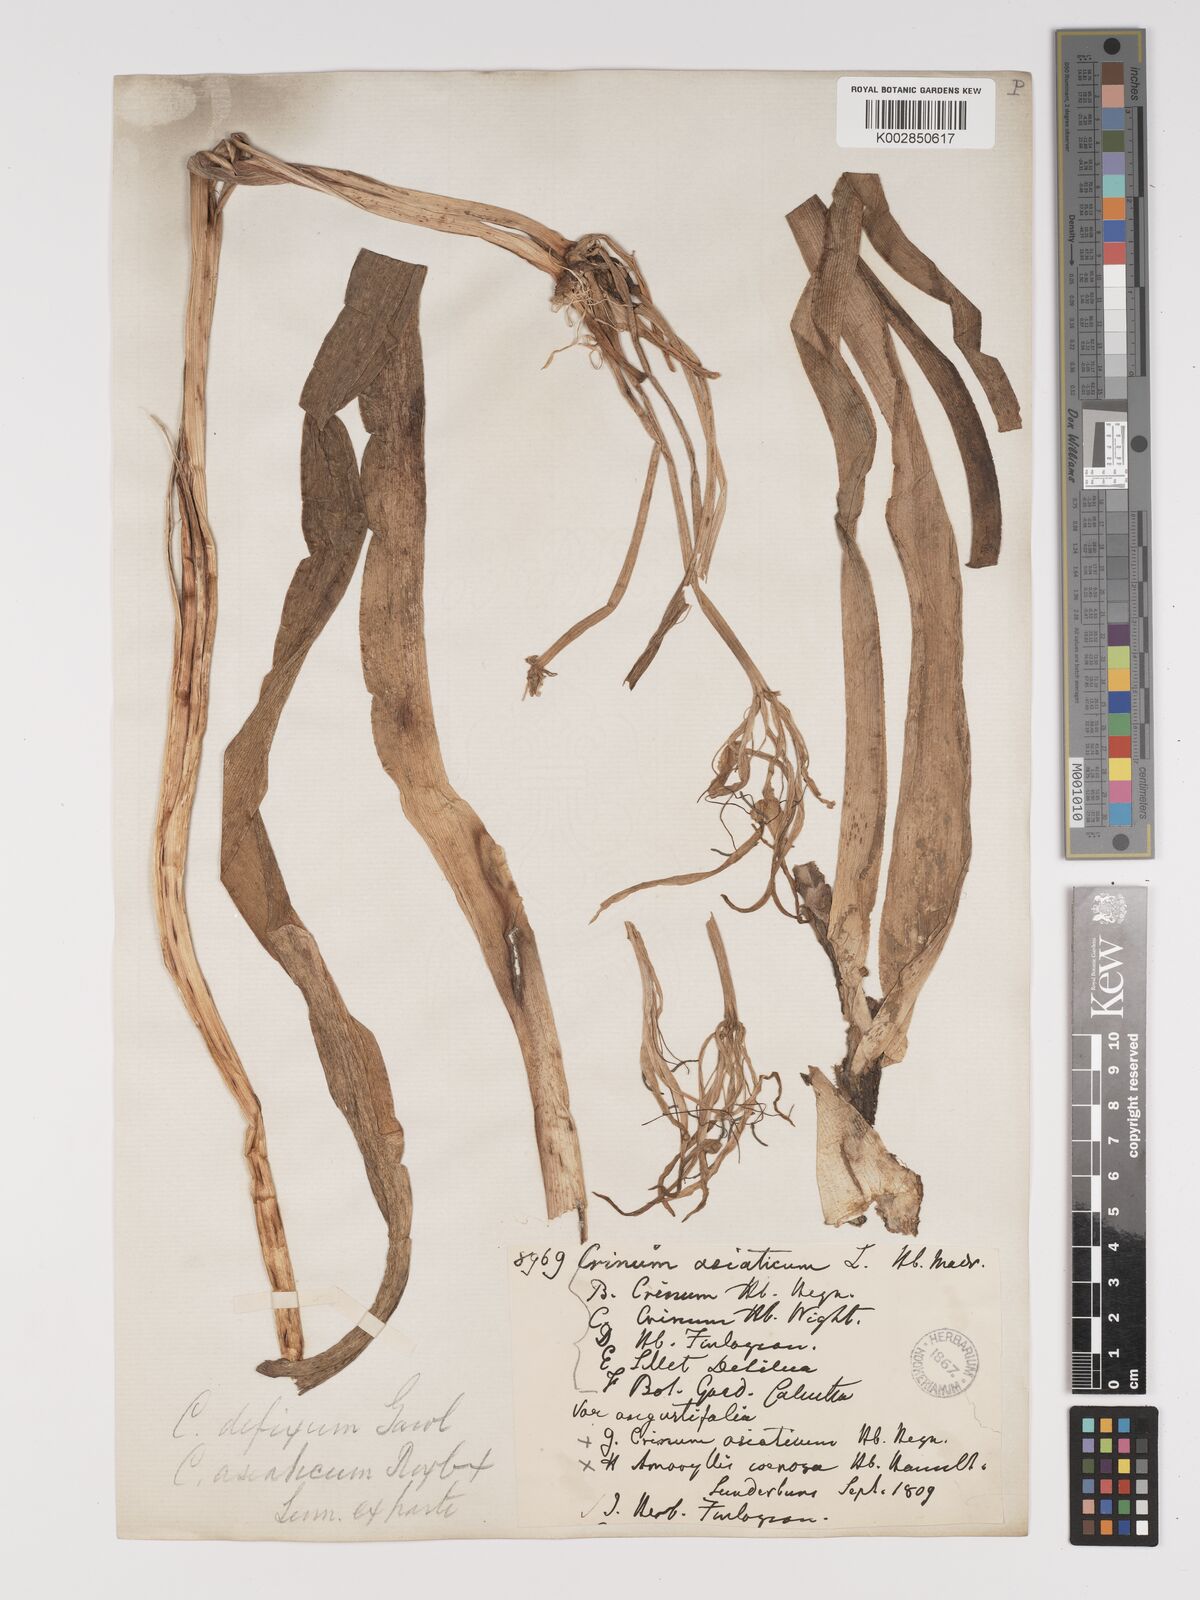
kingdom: Plantae
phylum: Tracheophyta
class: Liliopsida
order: Asparagales
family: Amaryllidaceae
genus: Crinum
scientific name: Crinum defixum
